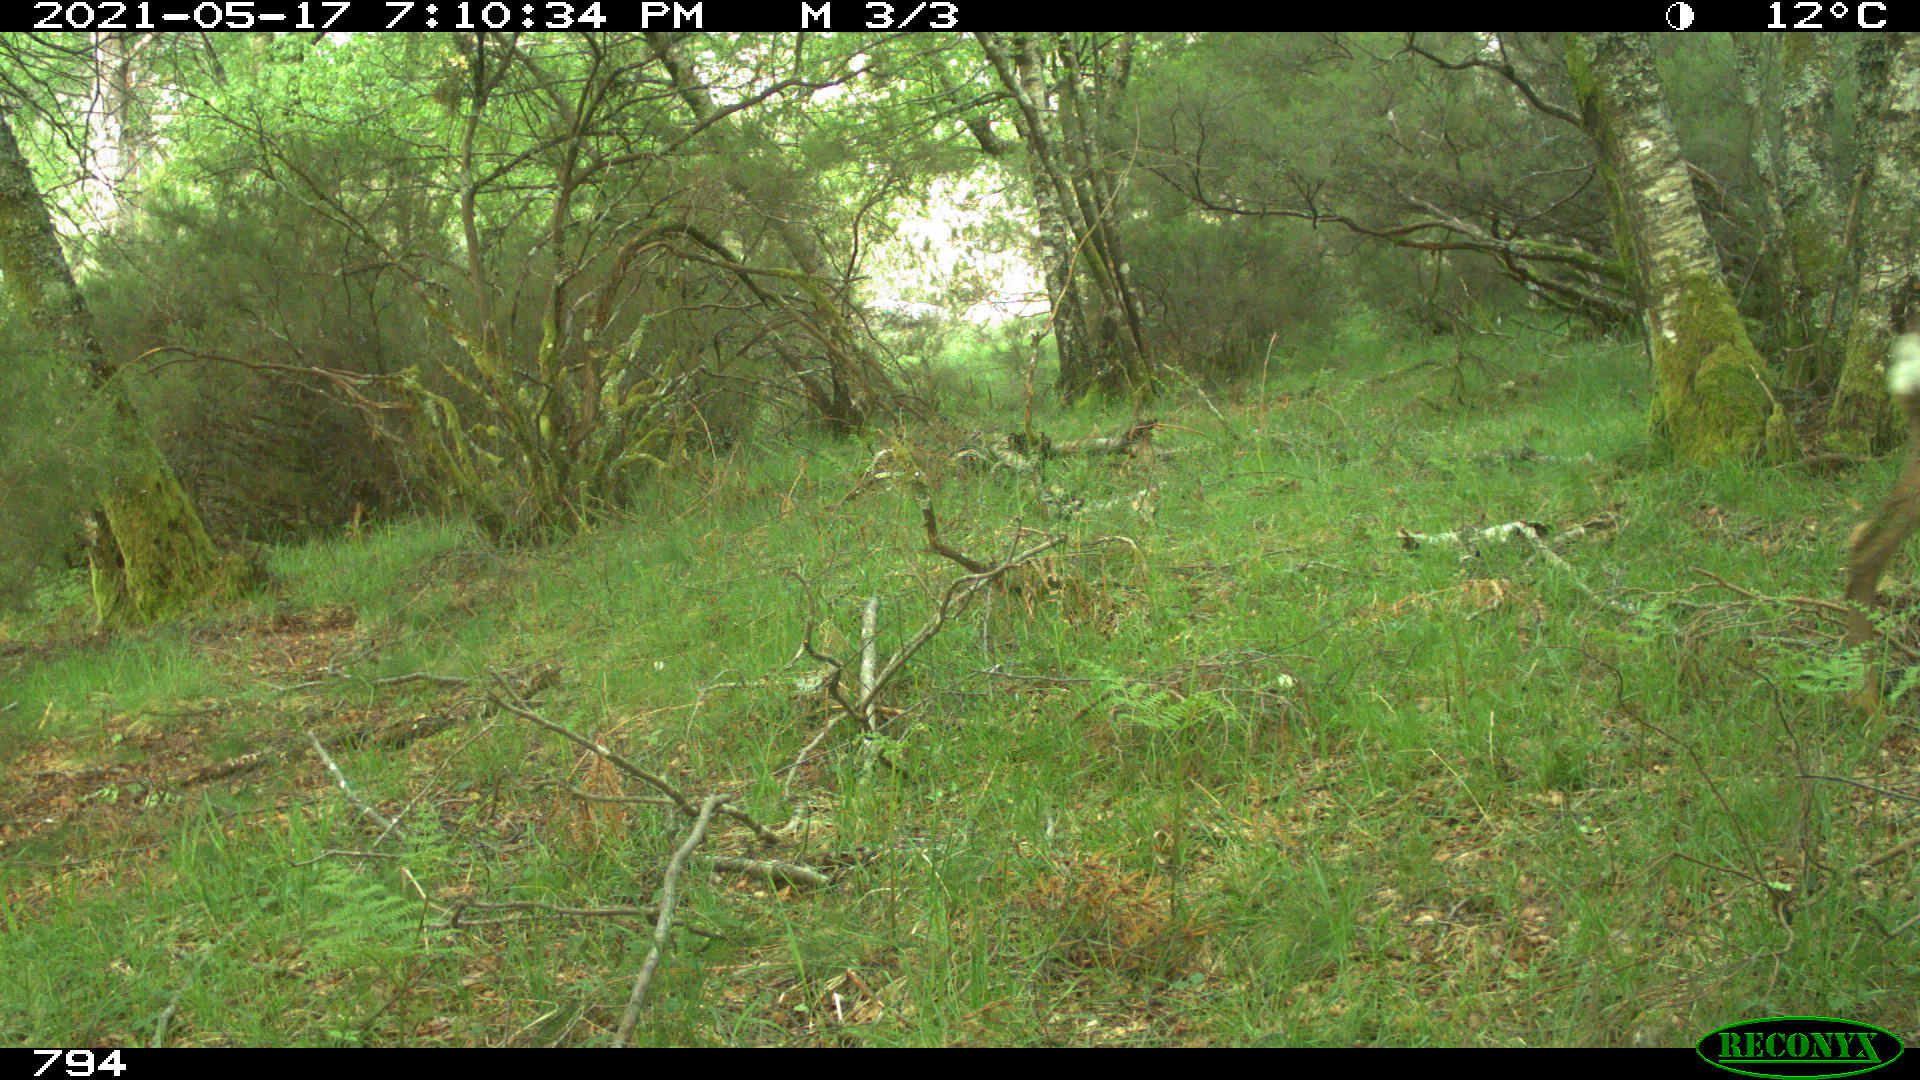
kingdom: Animalia
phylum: Chordata
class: Mammalia
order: Artiodactyla
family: Cervidae
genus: Capreolus
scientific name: Capreolus capreolus
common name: Western roe deer
